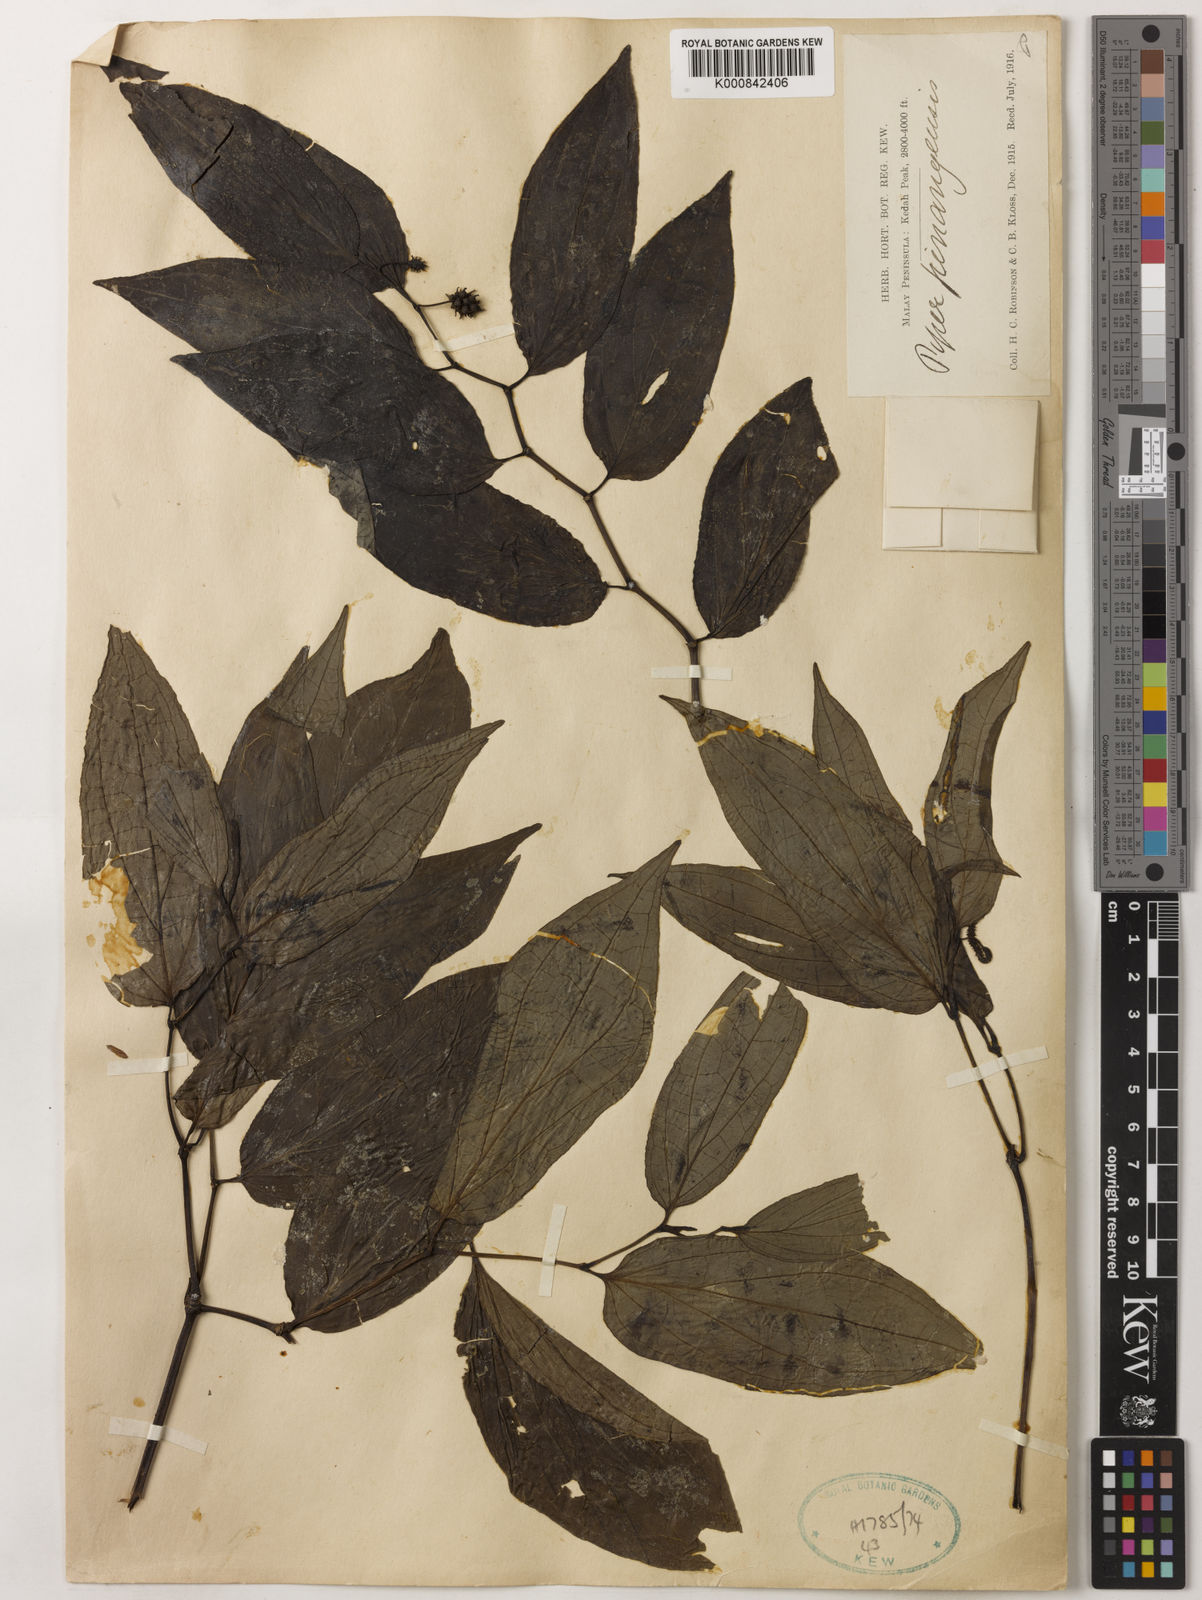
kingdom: Plantae
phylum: Tracheophyta
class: Magnoliopsida
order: Piperales
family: Piperaceae
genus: Piper
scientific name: Piper penangense
